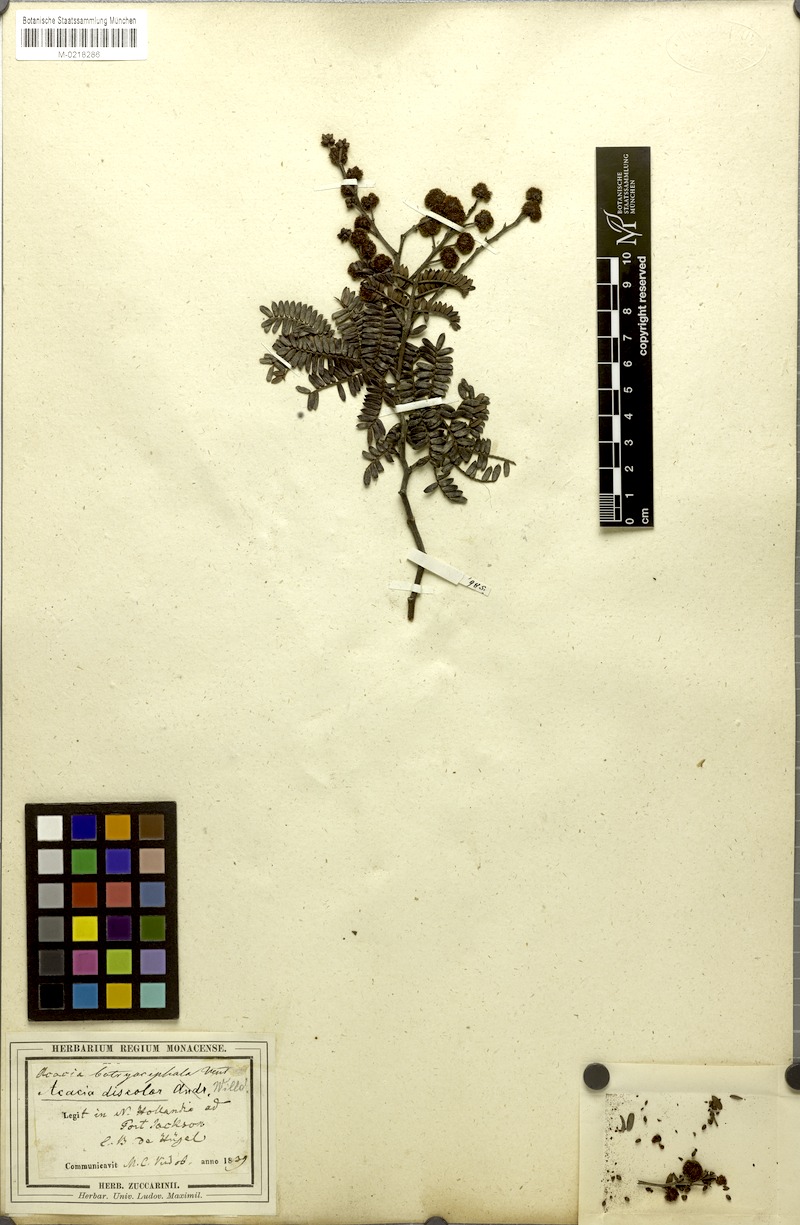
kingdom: Plantae
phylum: Tracheophyta
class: Magnoliopsida
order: Fabales
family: Fabaceae
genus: Acacia
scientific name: Acacia terminalis
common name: Cedar wattle
